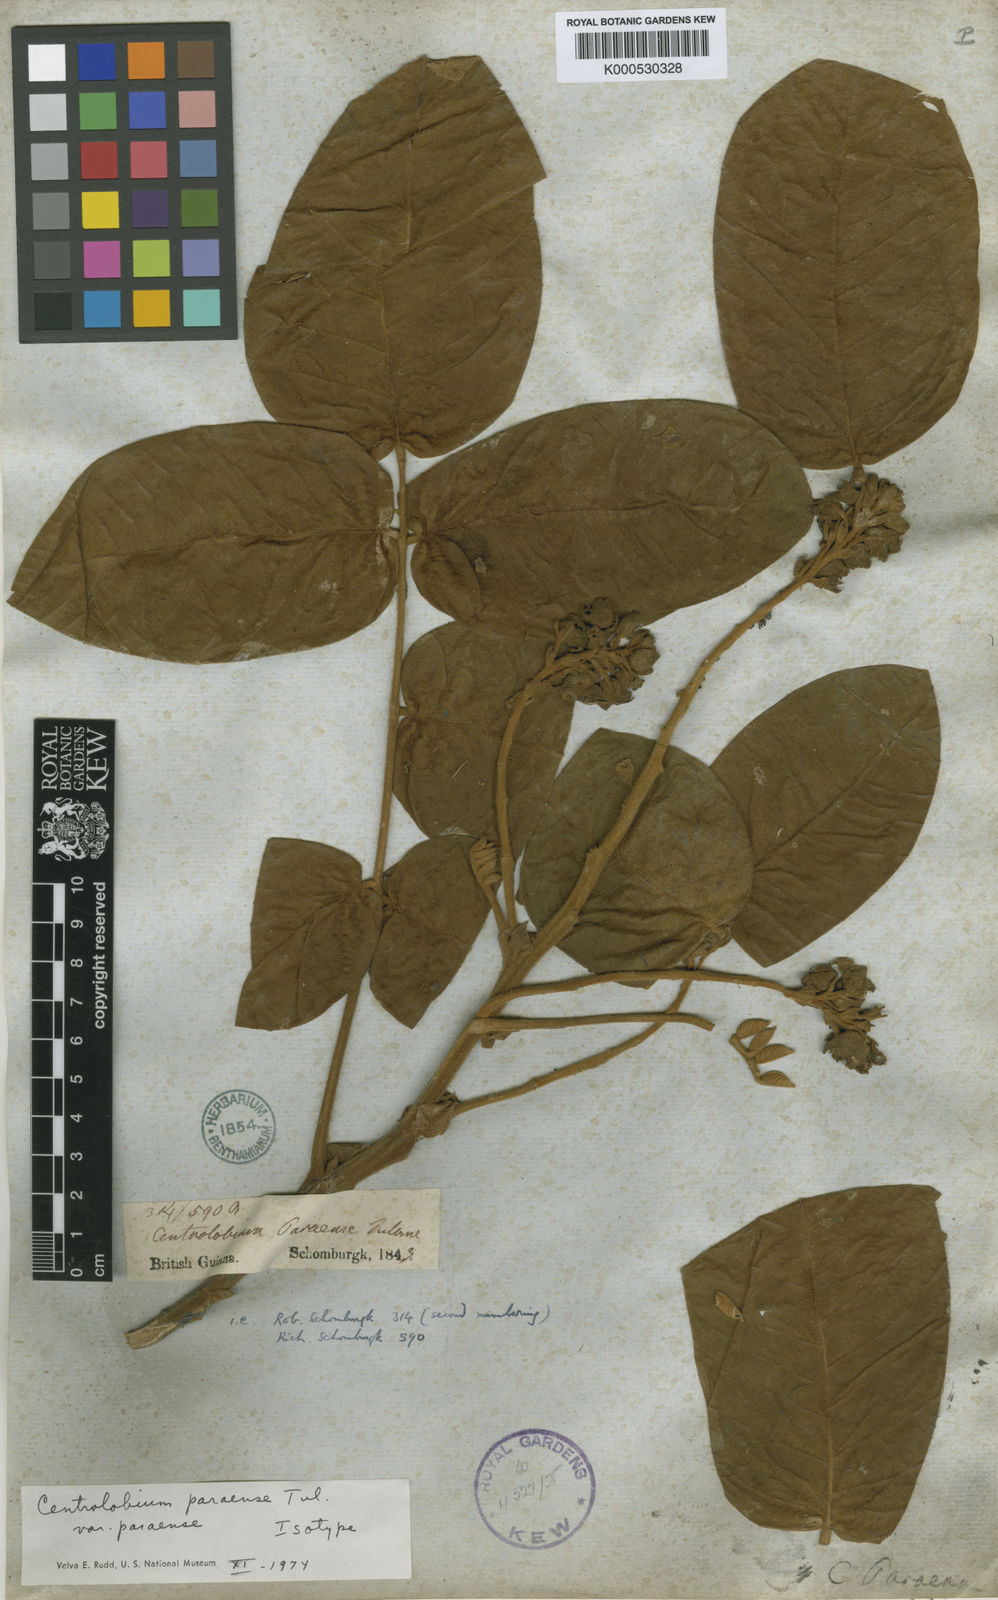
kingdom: Plantae
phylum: Tracheophyta
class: Magnoliopsida
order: Fabales
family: Fabaceae
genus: Centrolobium
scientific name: Centrolobium paraense
